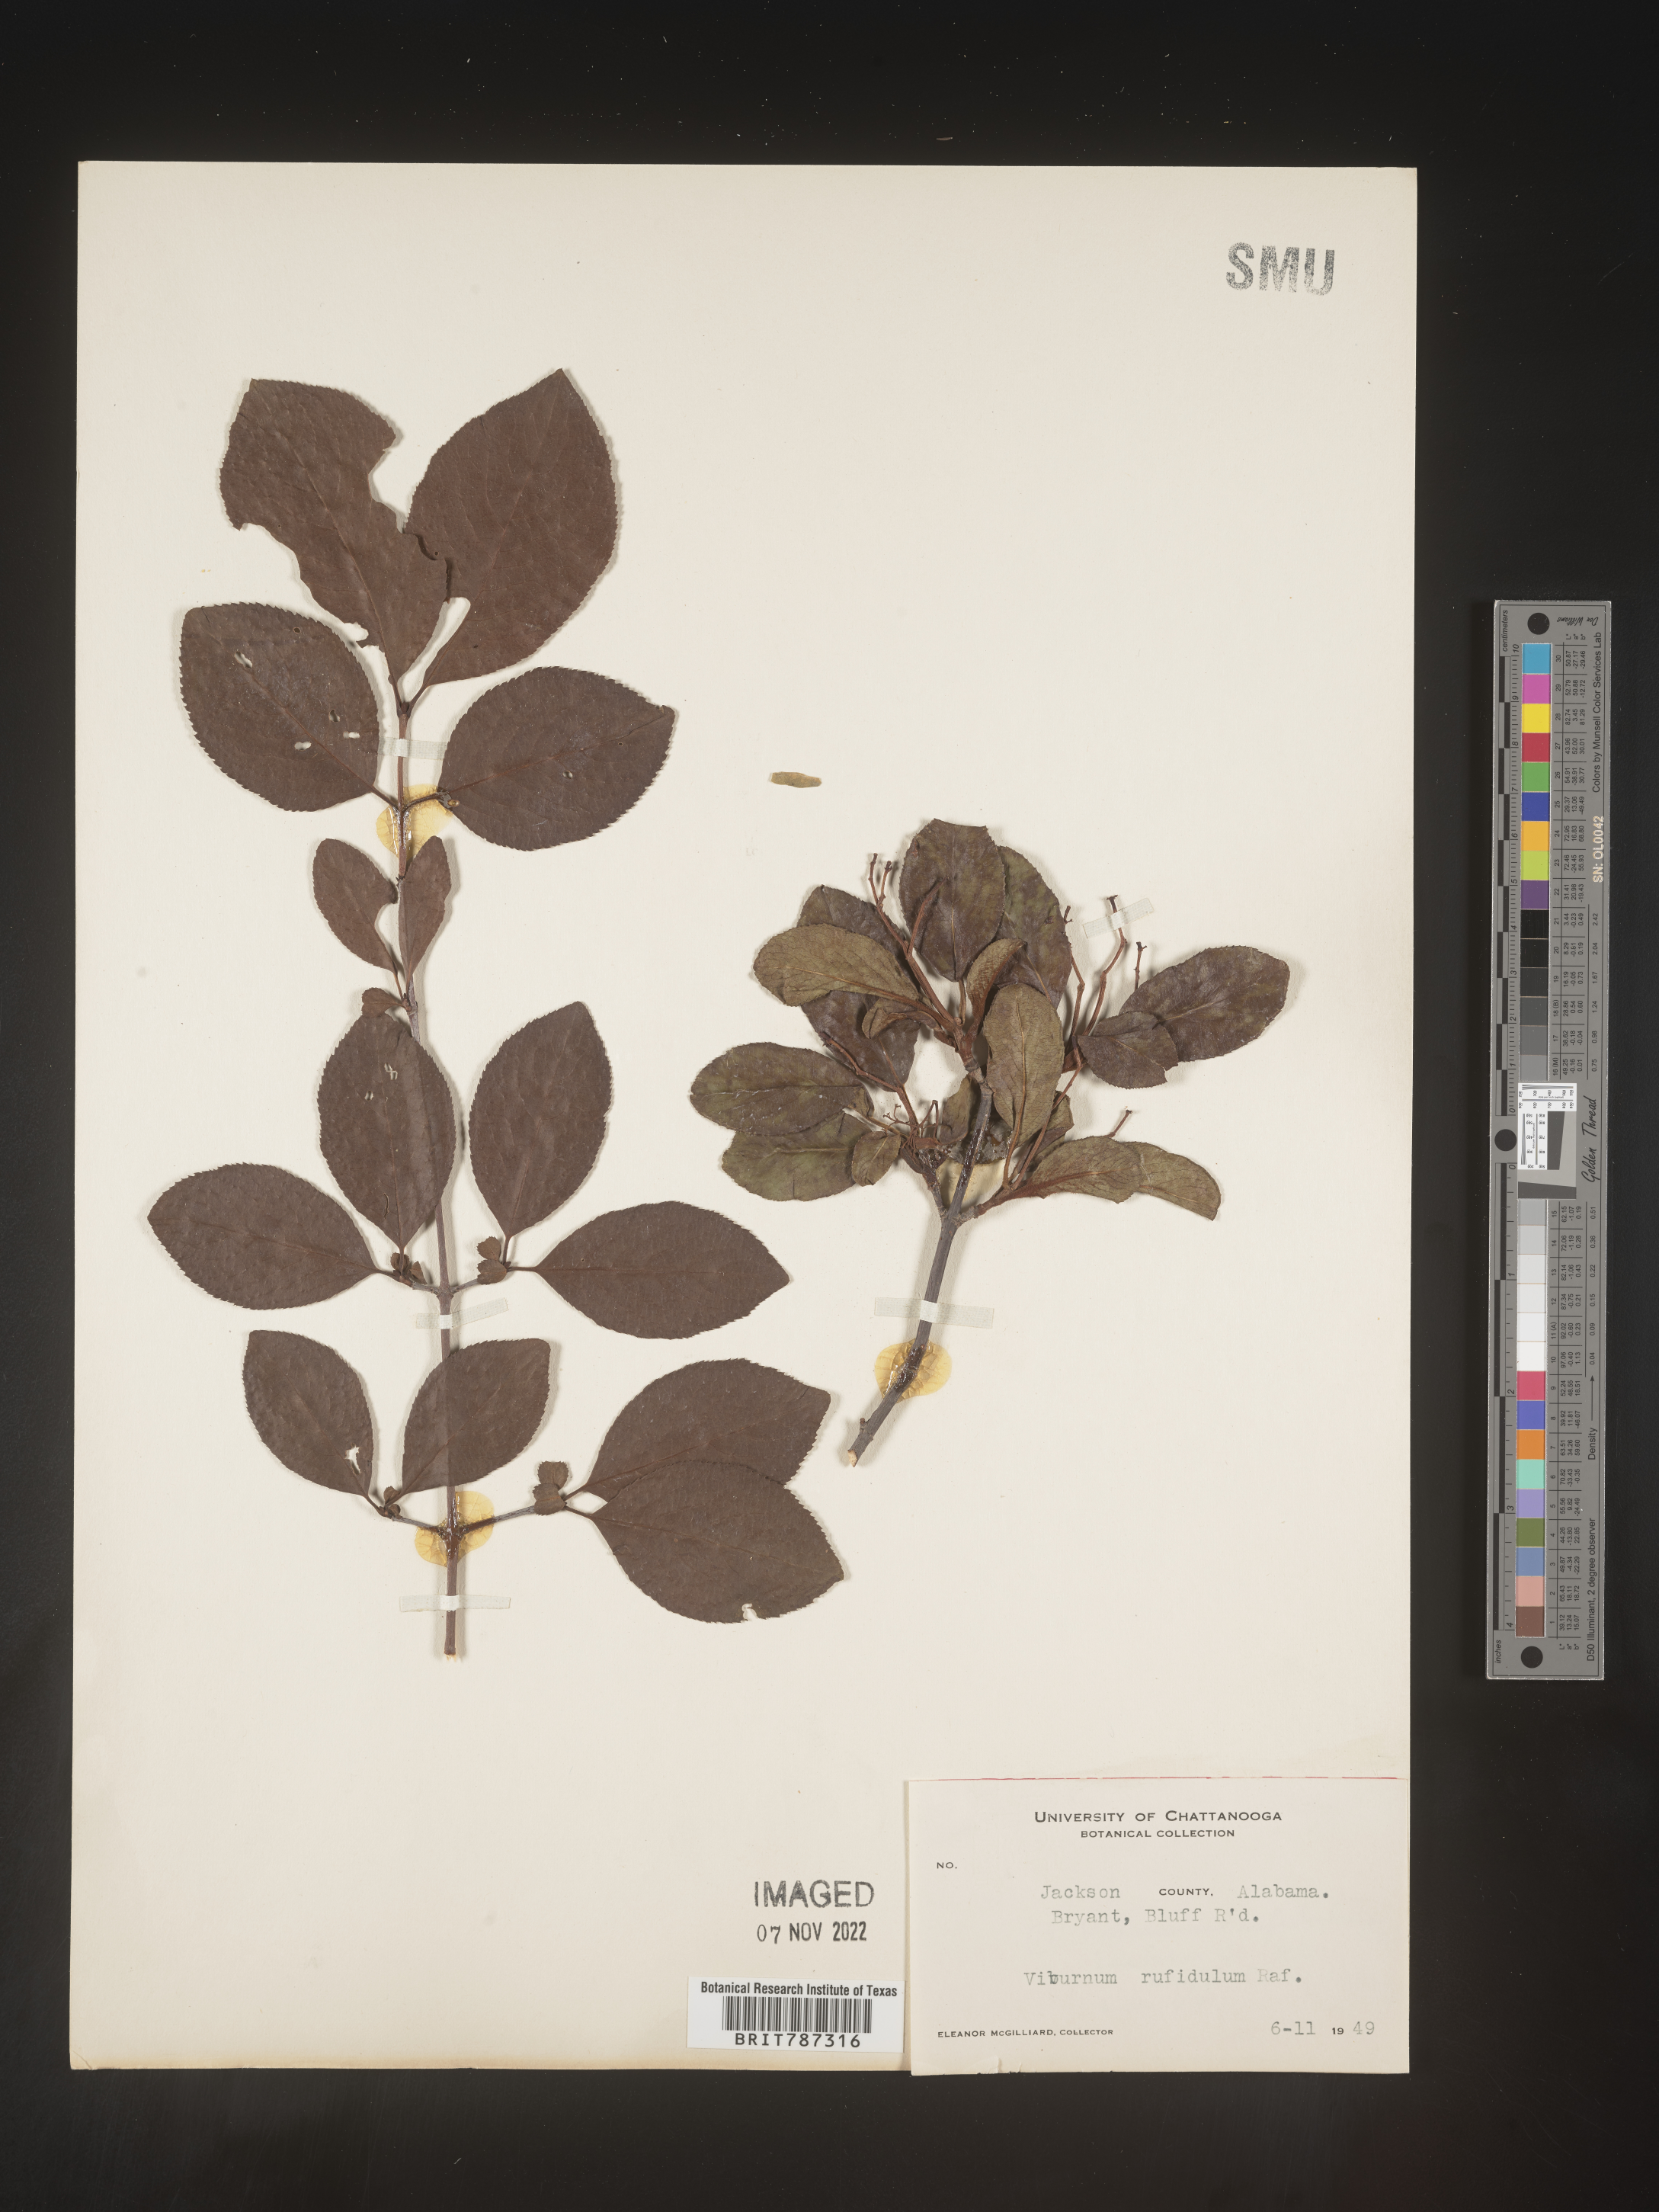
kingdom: Plantae
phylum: Tracheophyta
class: Magnoliopsida
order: Dipsacales
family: Viburnaceae
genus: Viburnum
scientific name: Viburnum rufidulum
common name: Blue haw
